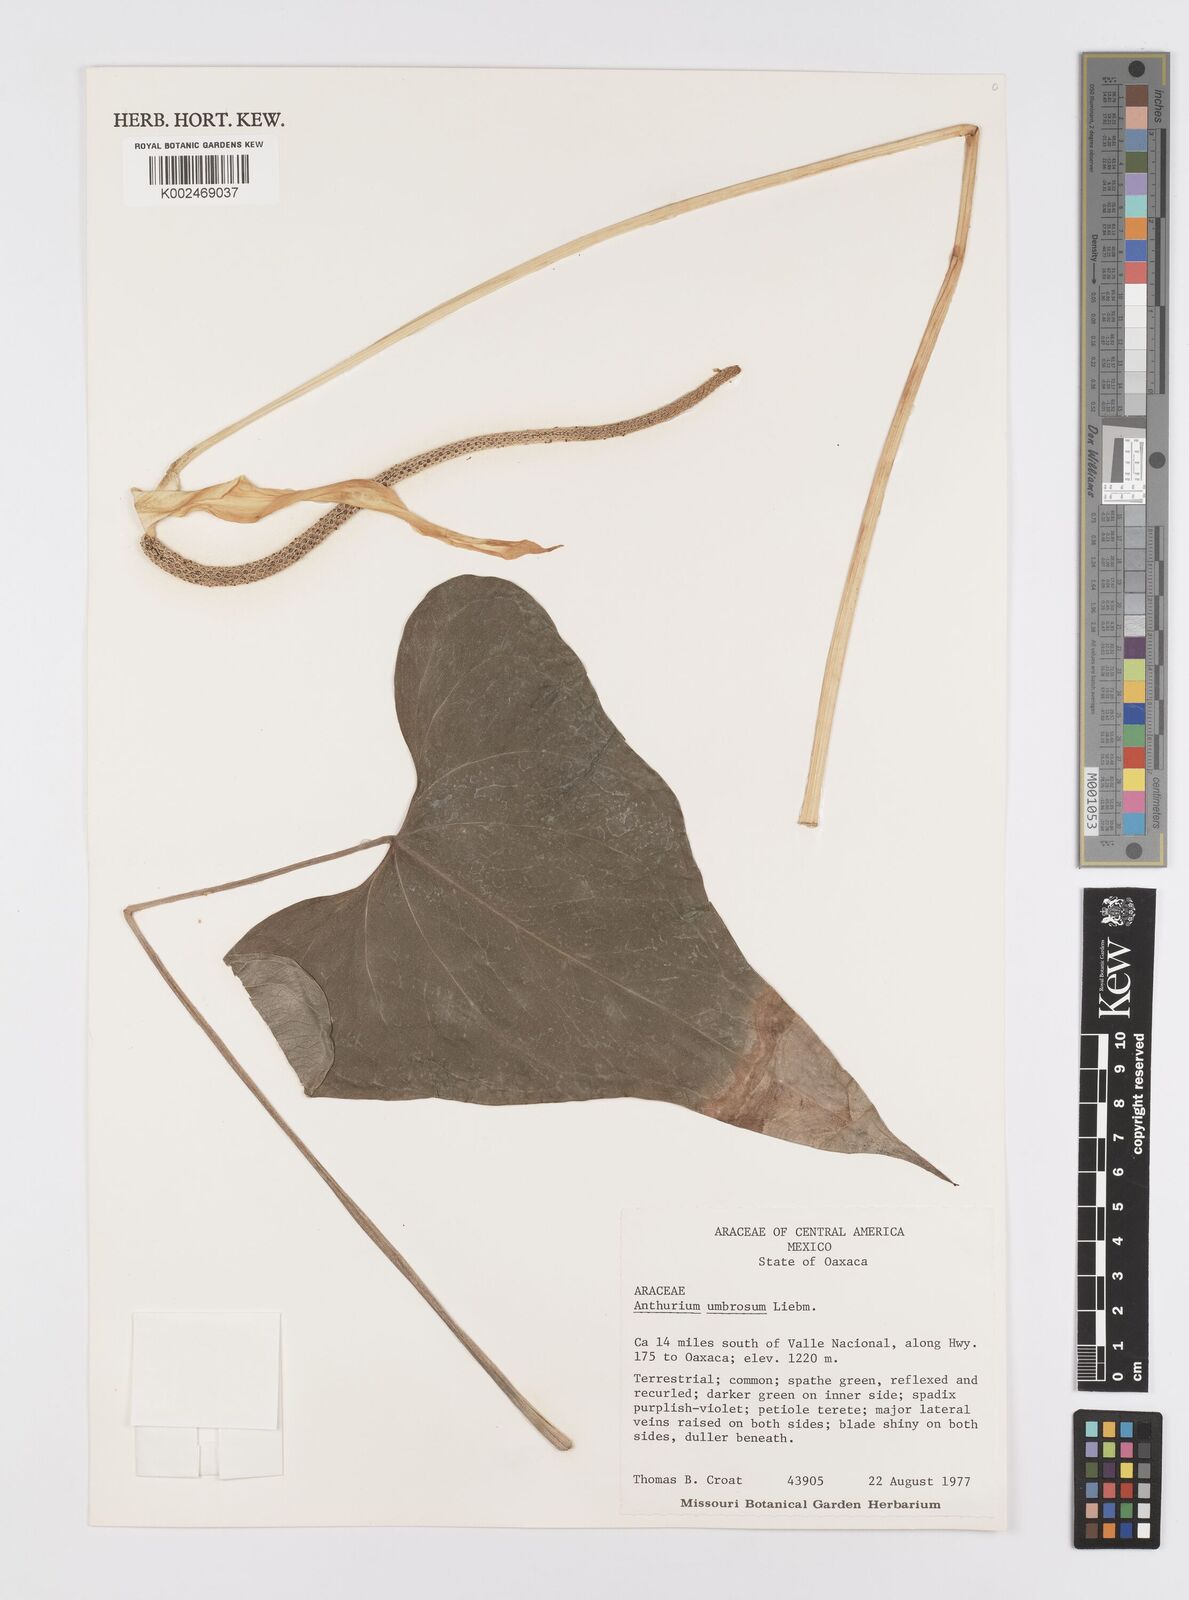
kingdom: Plantae
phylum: Tracheophyta
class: Liliopsida
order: Alismatales
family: Araceae
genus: Anthurium
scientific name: Anthurium umbrosum
